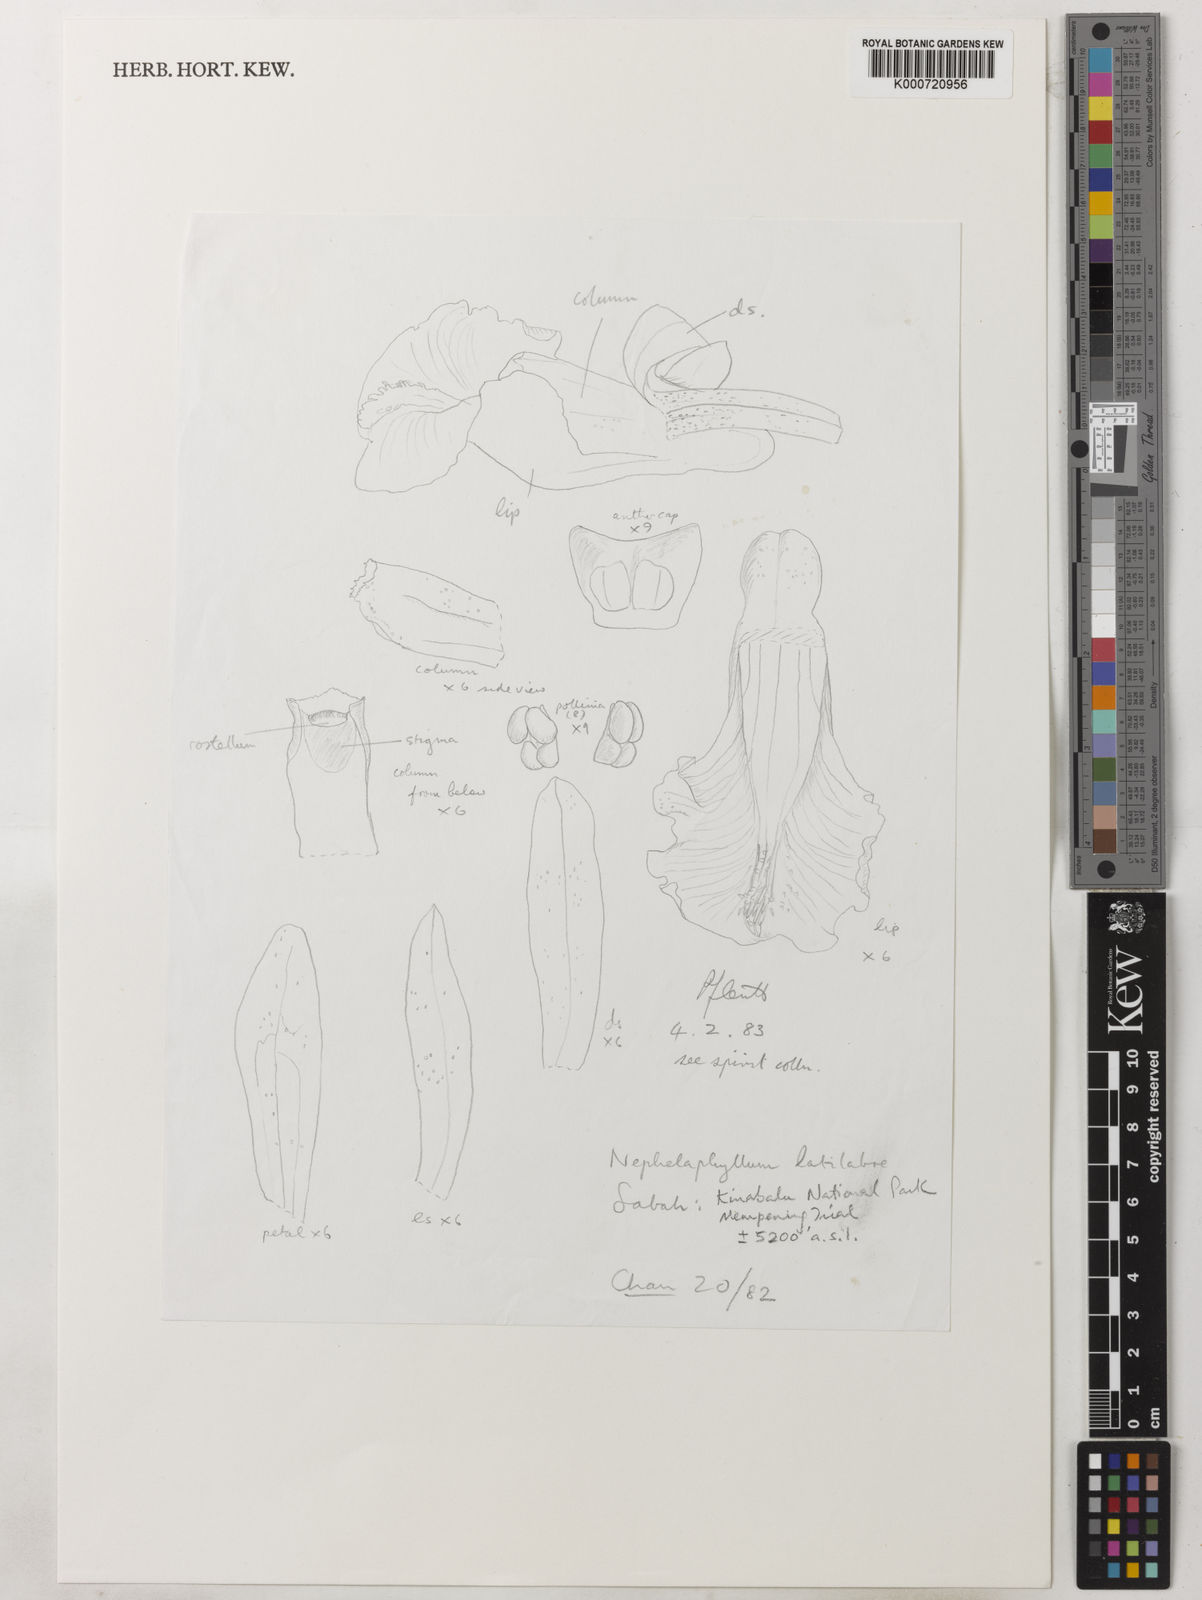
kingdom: Plantae
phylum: Tracheophyta
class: Liliopsida
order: Asparagales
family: Orchidaceae
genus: Nephelaphyllum
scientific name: Nephelaphyllum pulchrum
